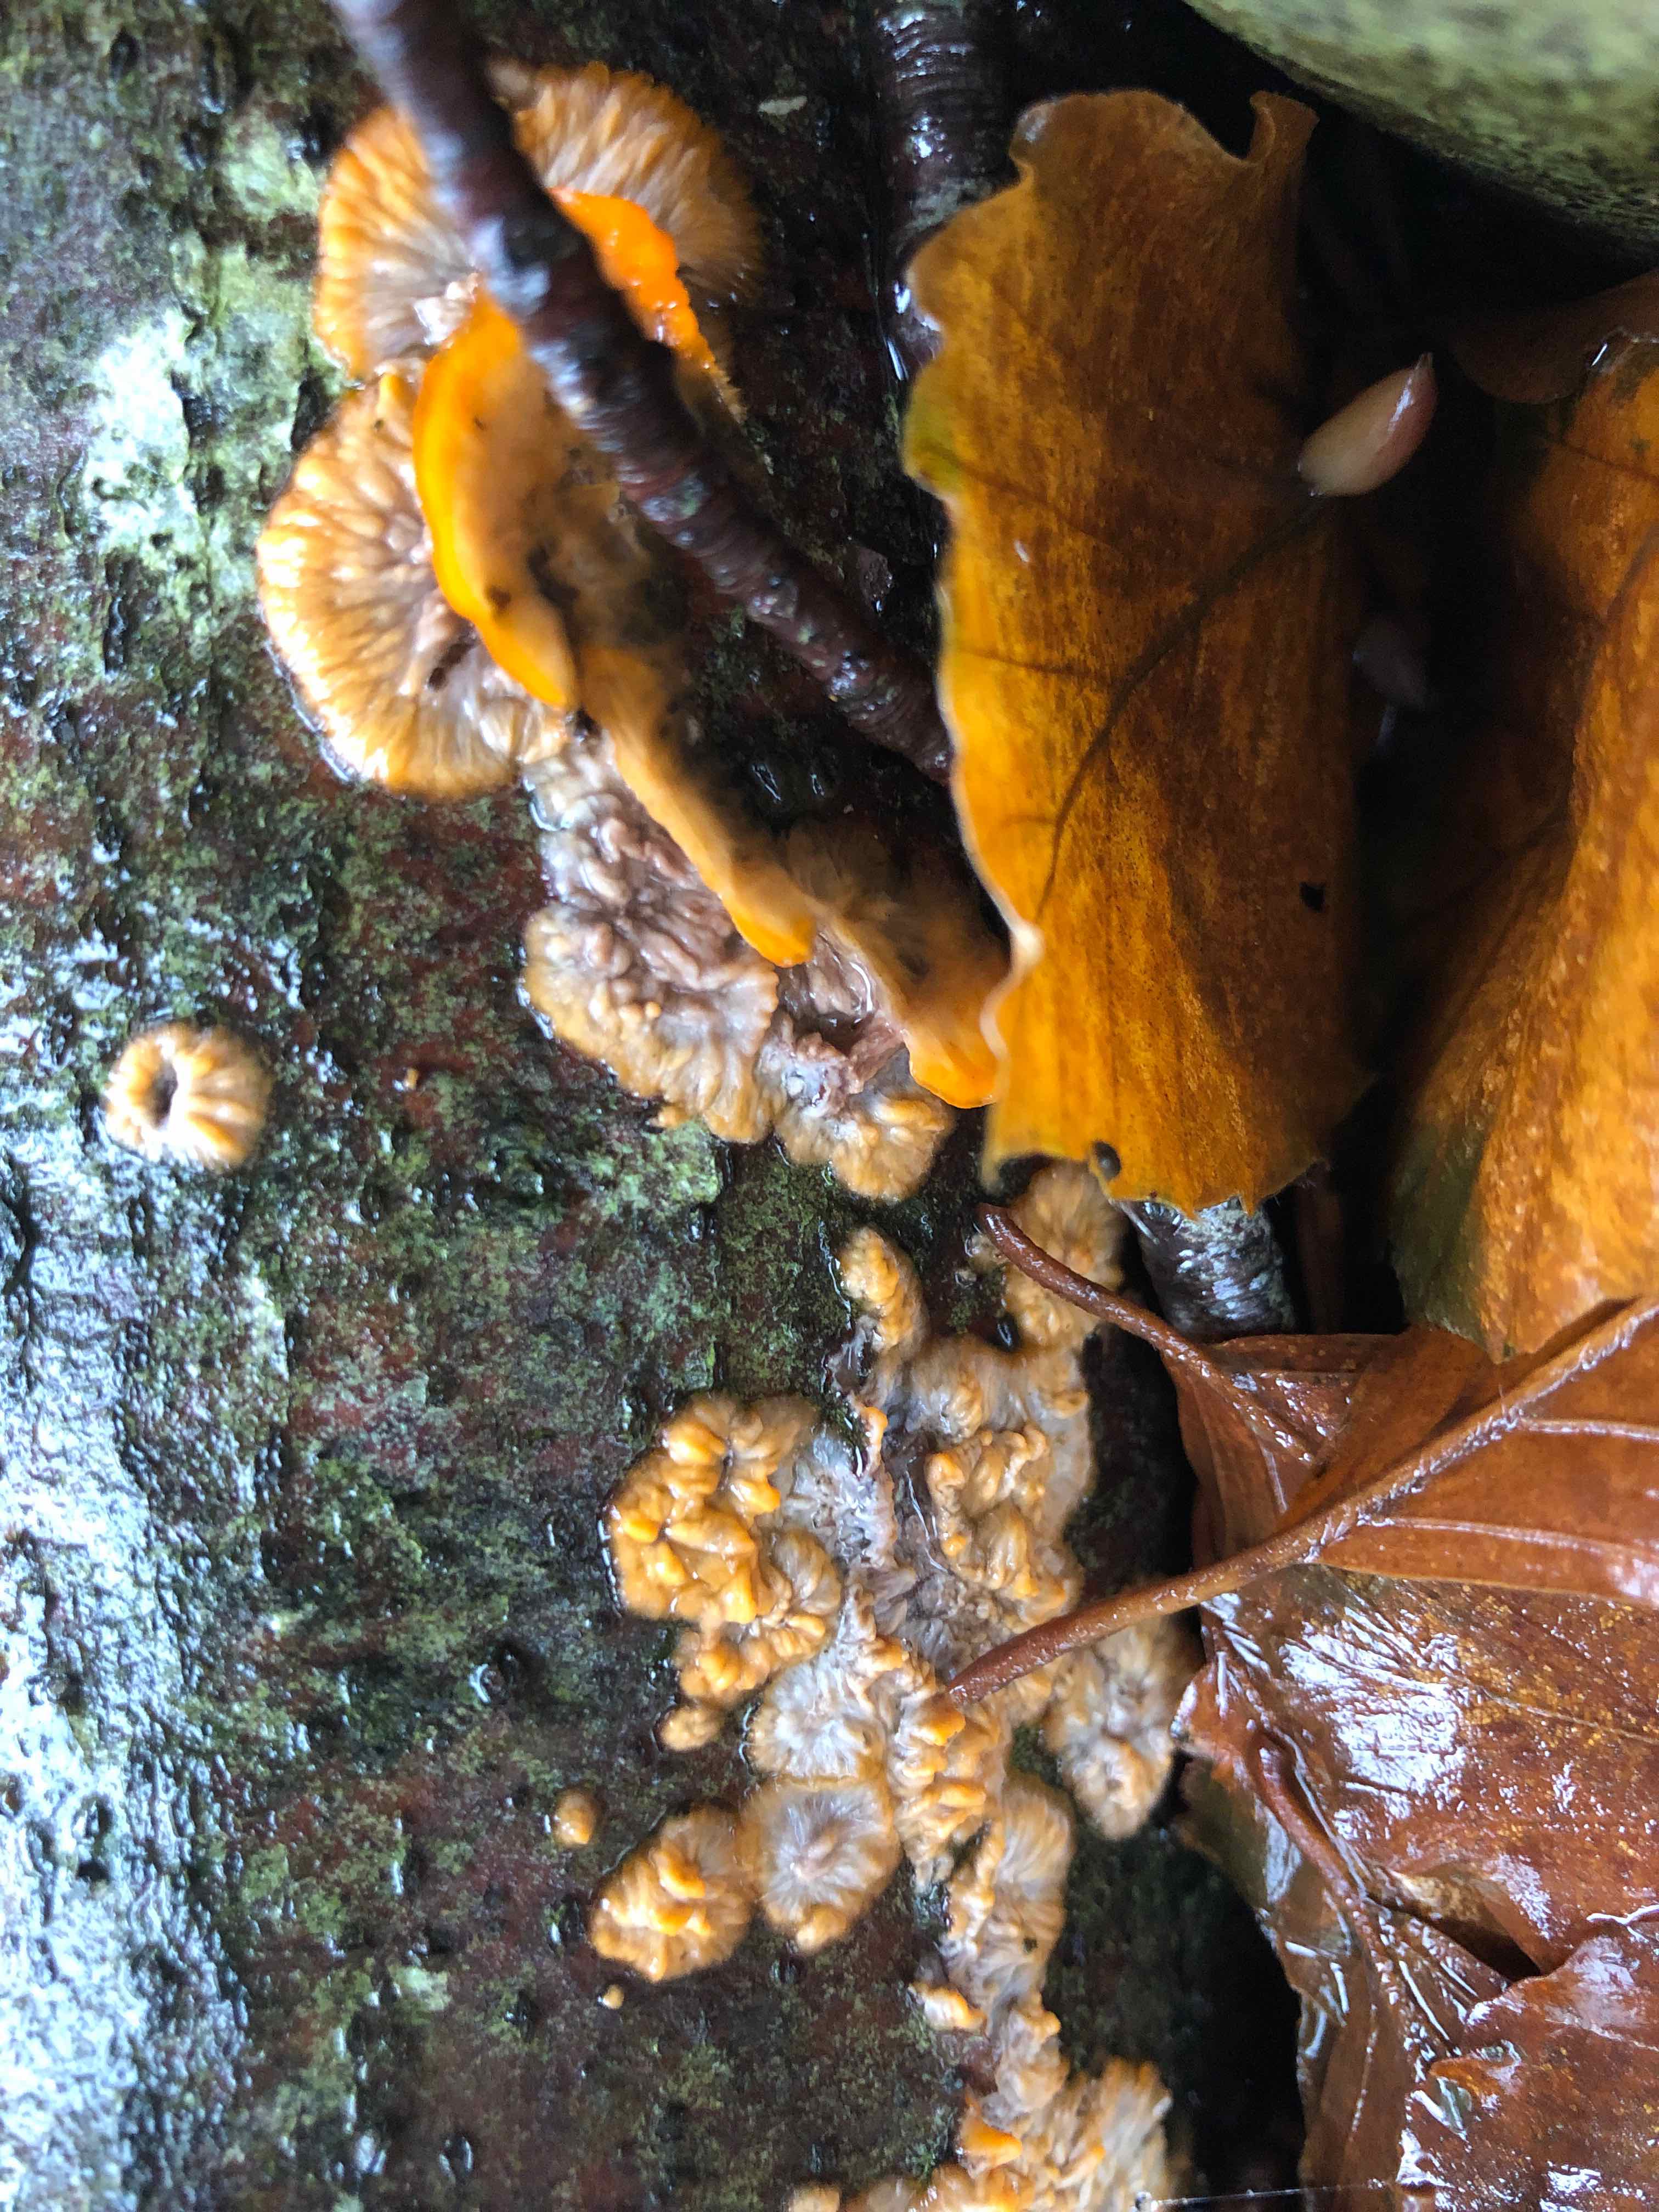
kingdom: Fungi
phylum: Basidiomycota
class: Agaricomycetes
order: Polyporales
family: Meruliaceae
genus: Phlebia
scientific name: Phlebia radiata
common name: stråle-åresvamp
